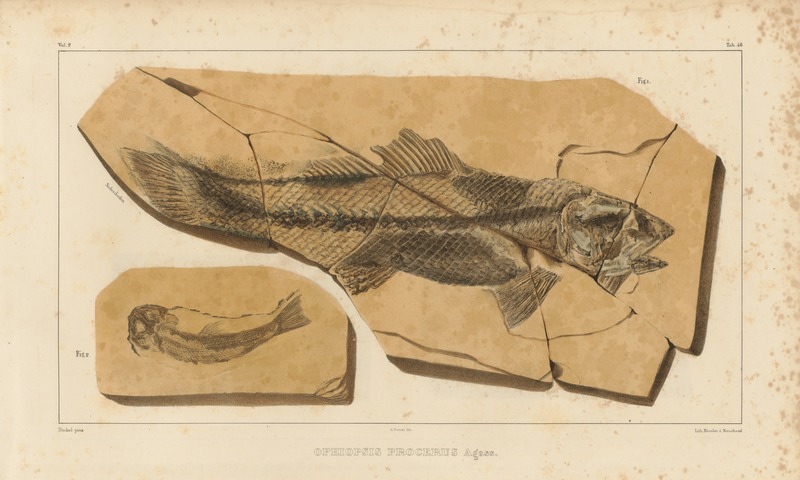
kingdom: Animalia
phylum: Chordata
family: Ophiopsiellidae
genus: Ophiopsiella
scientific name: Ophiopsiella procera
